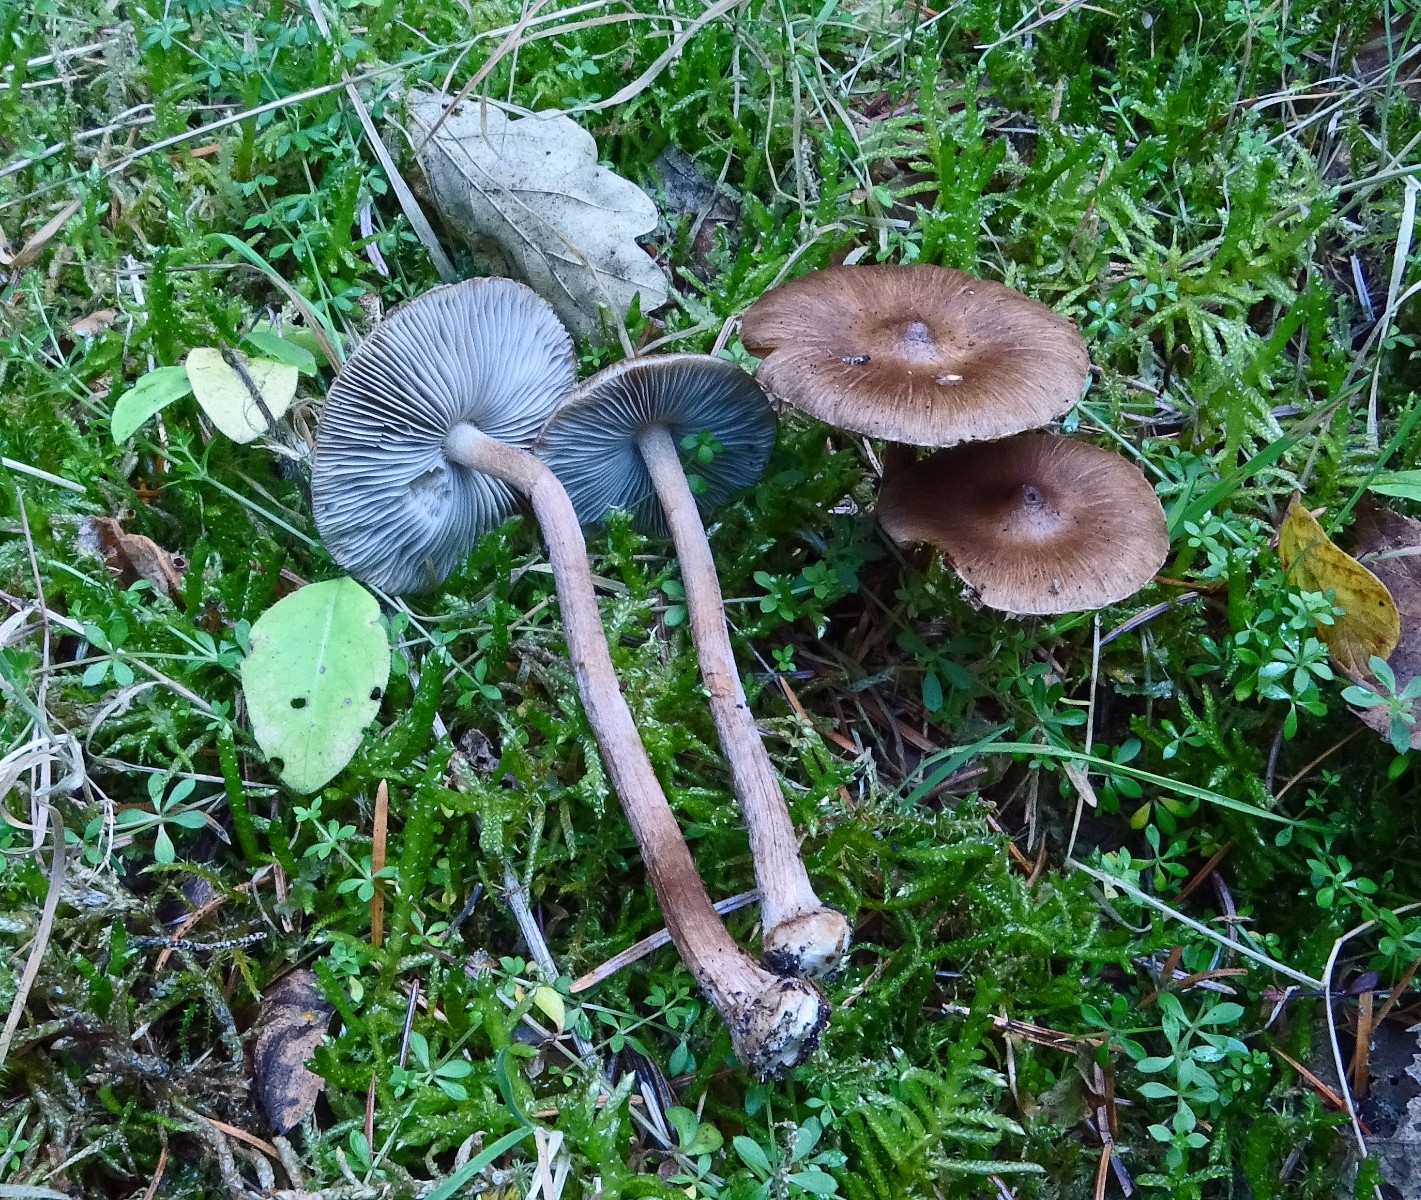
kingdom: Fungi
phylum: Basidiomycota
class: Agaricomycetes
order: Agaricales
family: Inocybaceae
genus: Inocybe
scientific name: Inocybe napipes
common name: roeknoldet trævlhat
